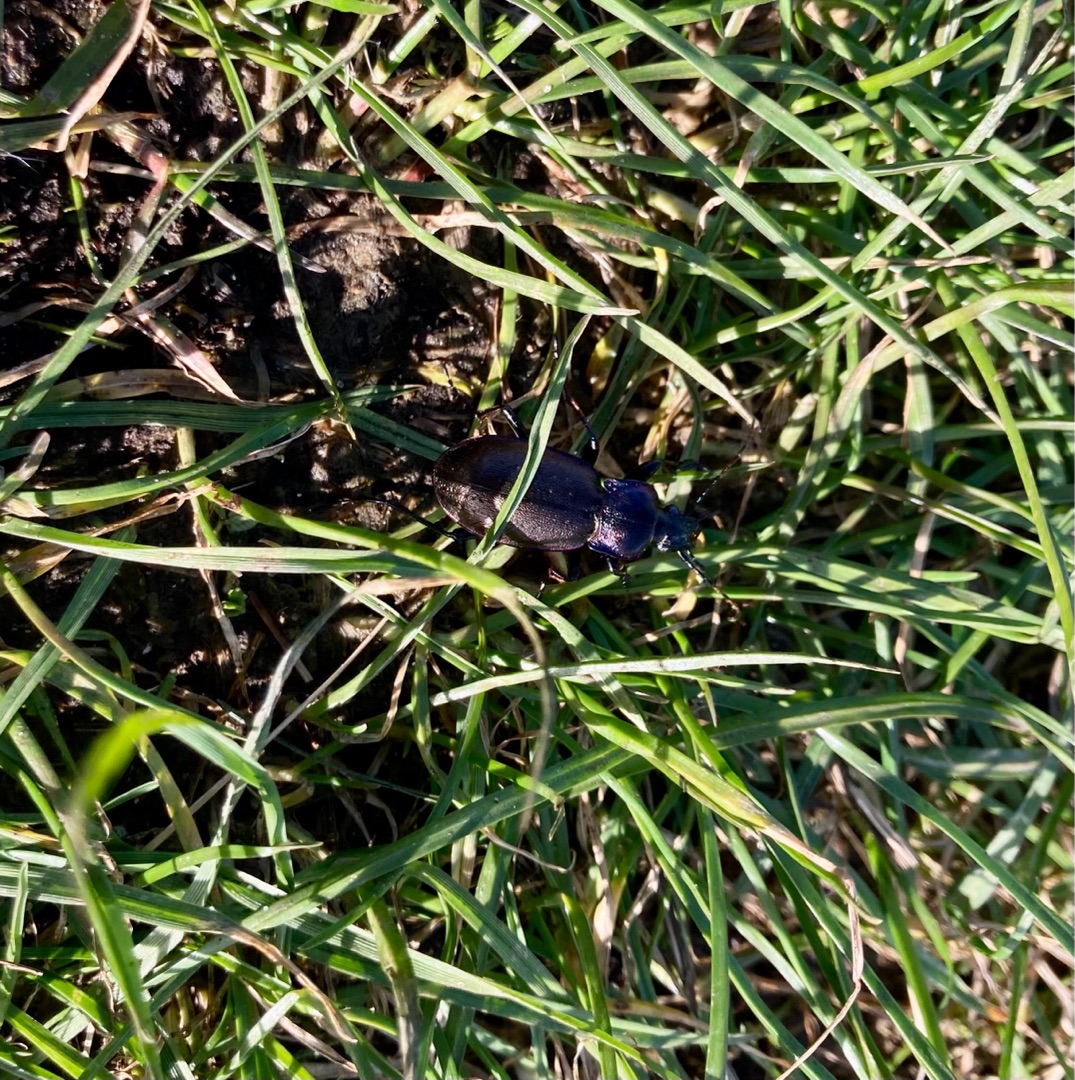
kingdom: Animalia
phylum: Arthropoda
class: Insecta
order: Coleoptera
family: Carabidae
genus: Carabus
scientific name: Carabus nemoralis
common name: Kratløber
